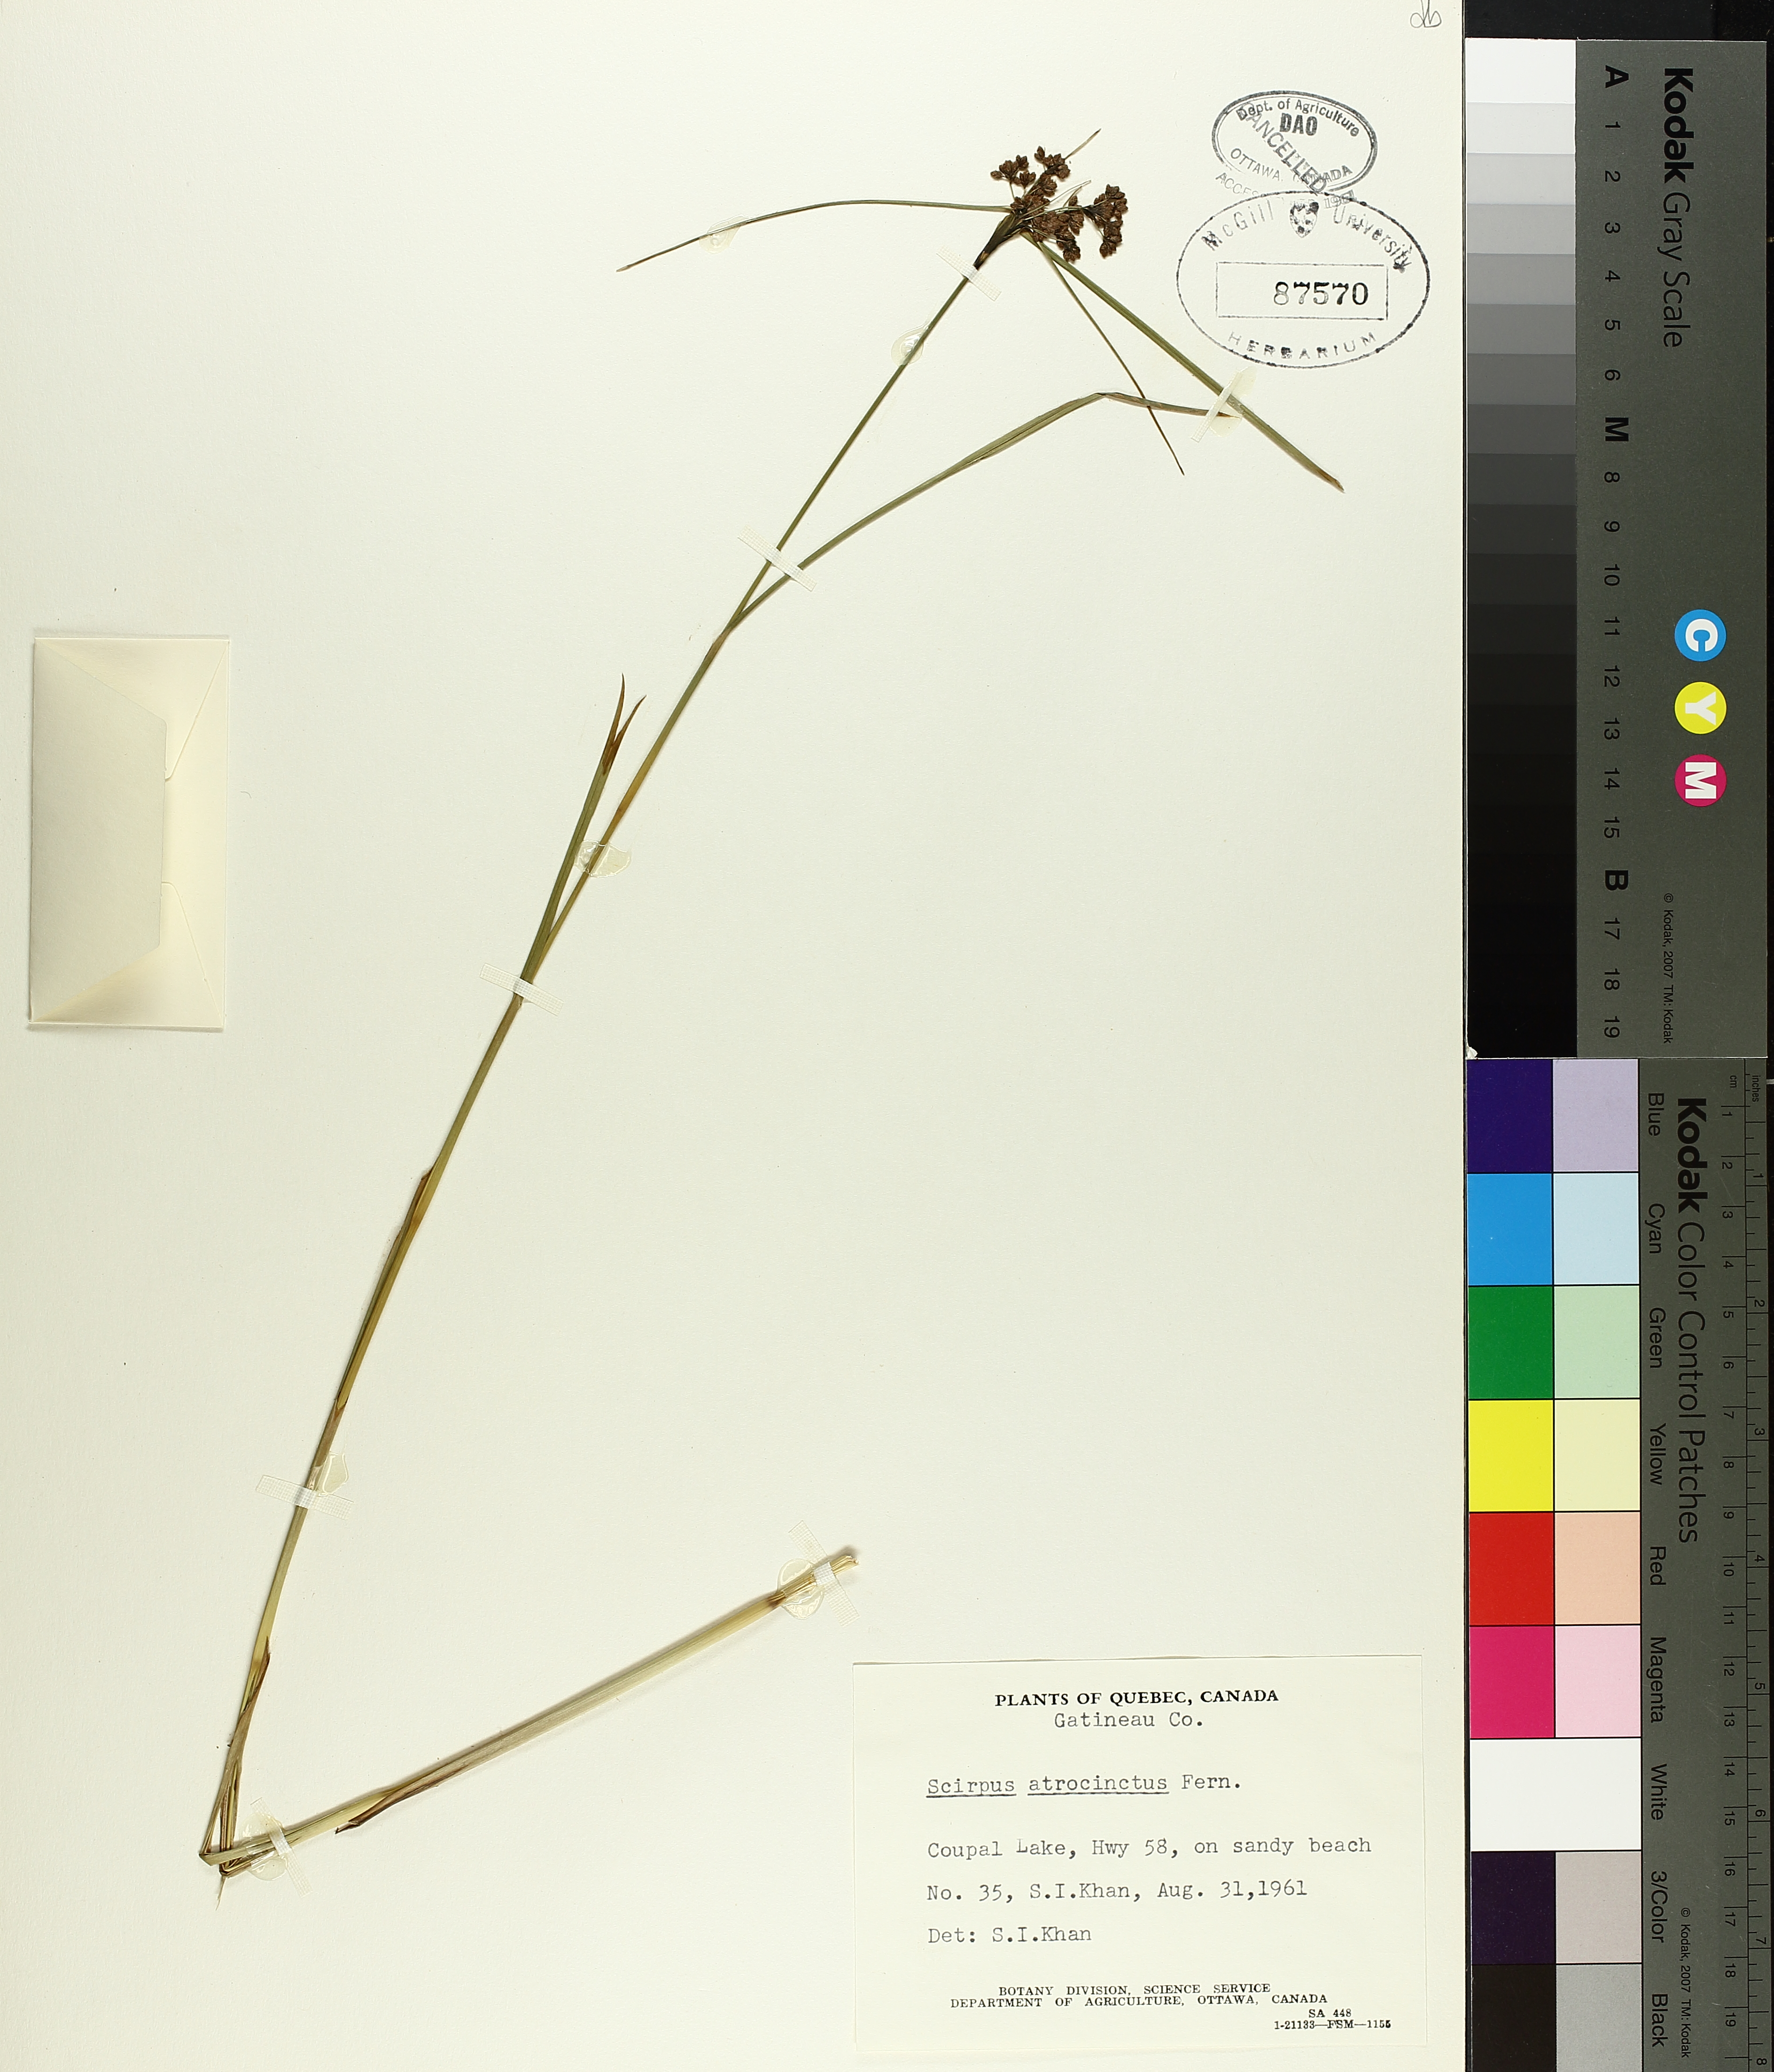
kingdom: Plantae
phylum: Tracheophyta
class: Liliopsida
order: Poales
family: Cyperaceae
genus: Scirpus
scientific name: Scirpus atrocinctus
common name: Black-girdled bulrush
